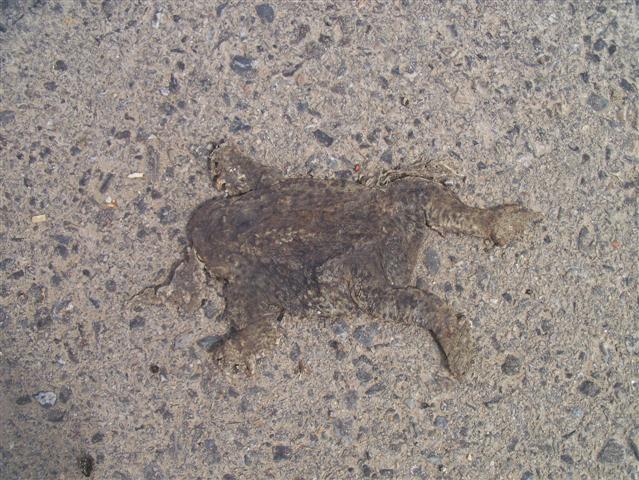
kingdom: Animalia
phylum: Chordata
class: Amphibia
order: Anura
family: Bufonidae
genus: Bufo
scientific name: Bufo bufo
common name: Common toad
